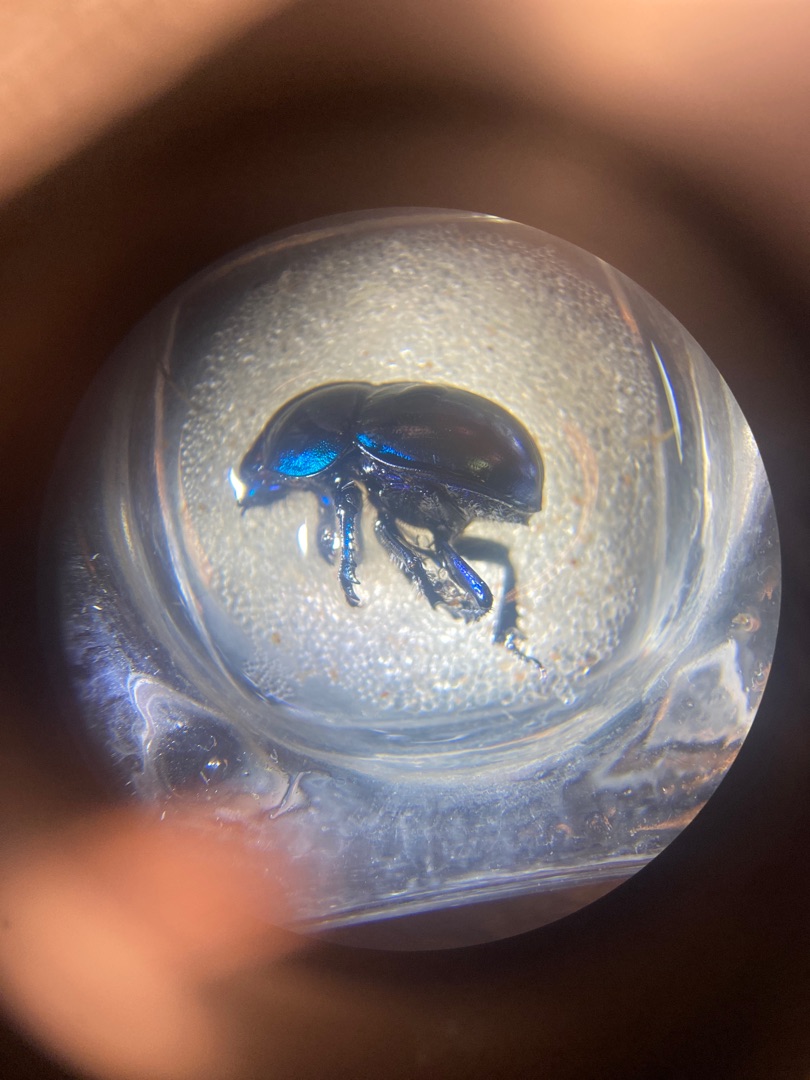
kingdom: Animalia
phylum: Arthropoda
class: Insecta
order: Coleoptera
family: Geotrupidae
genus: Trypocopris
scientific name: Trypocopris vernalis
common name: Glat skarnbasse
